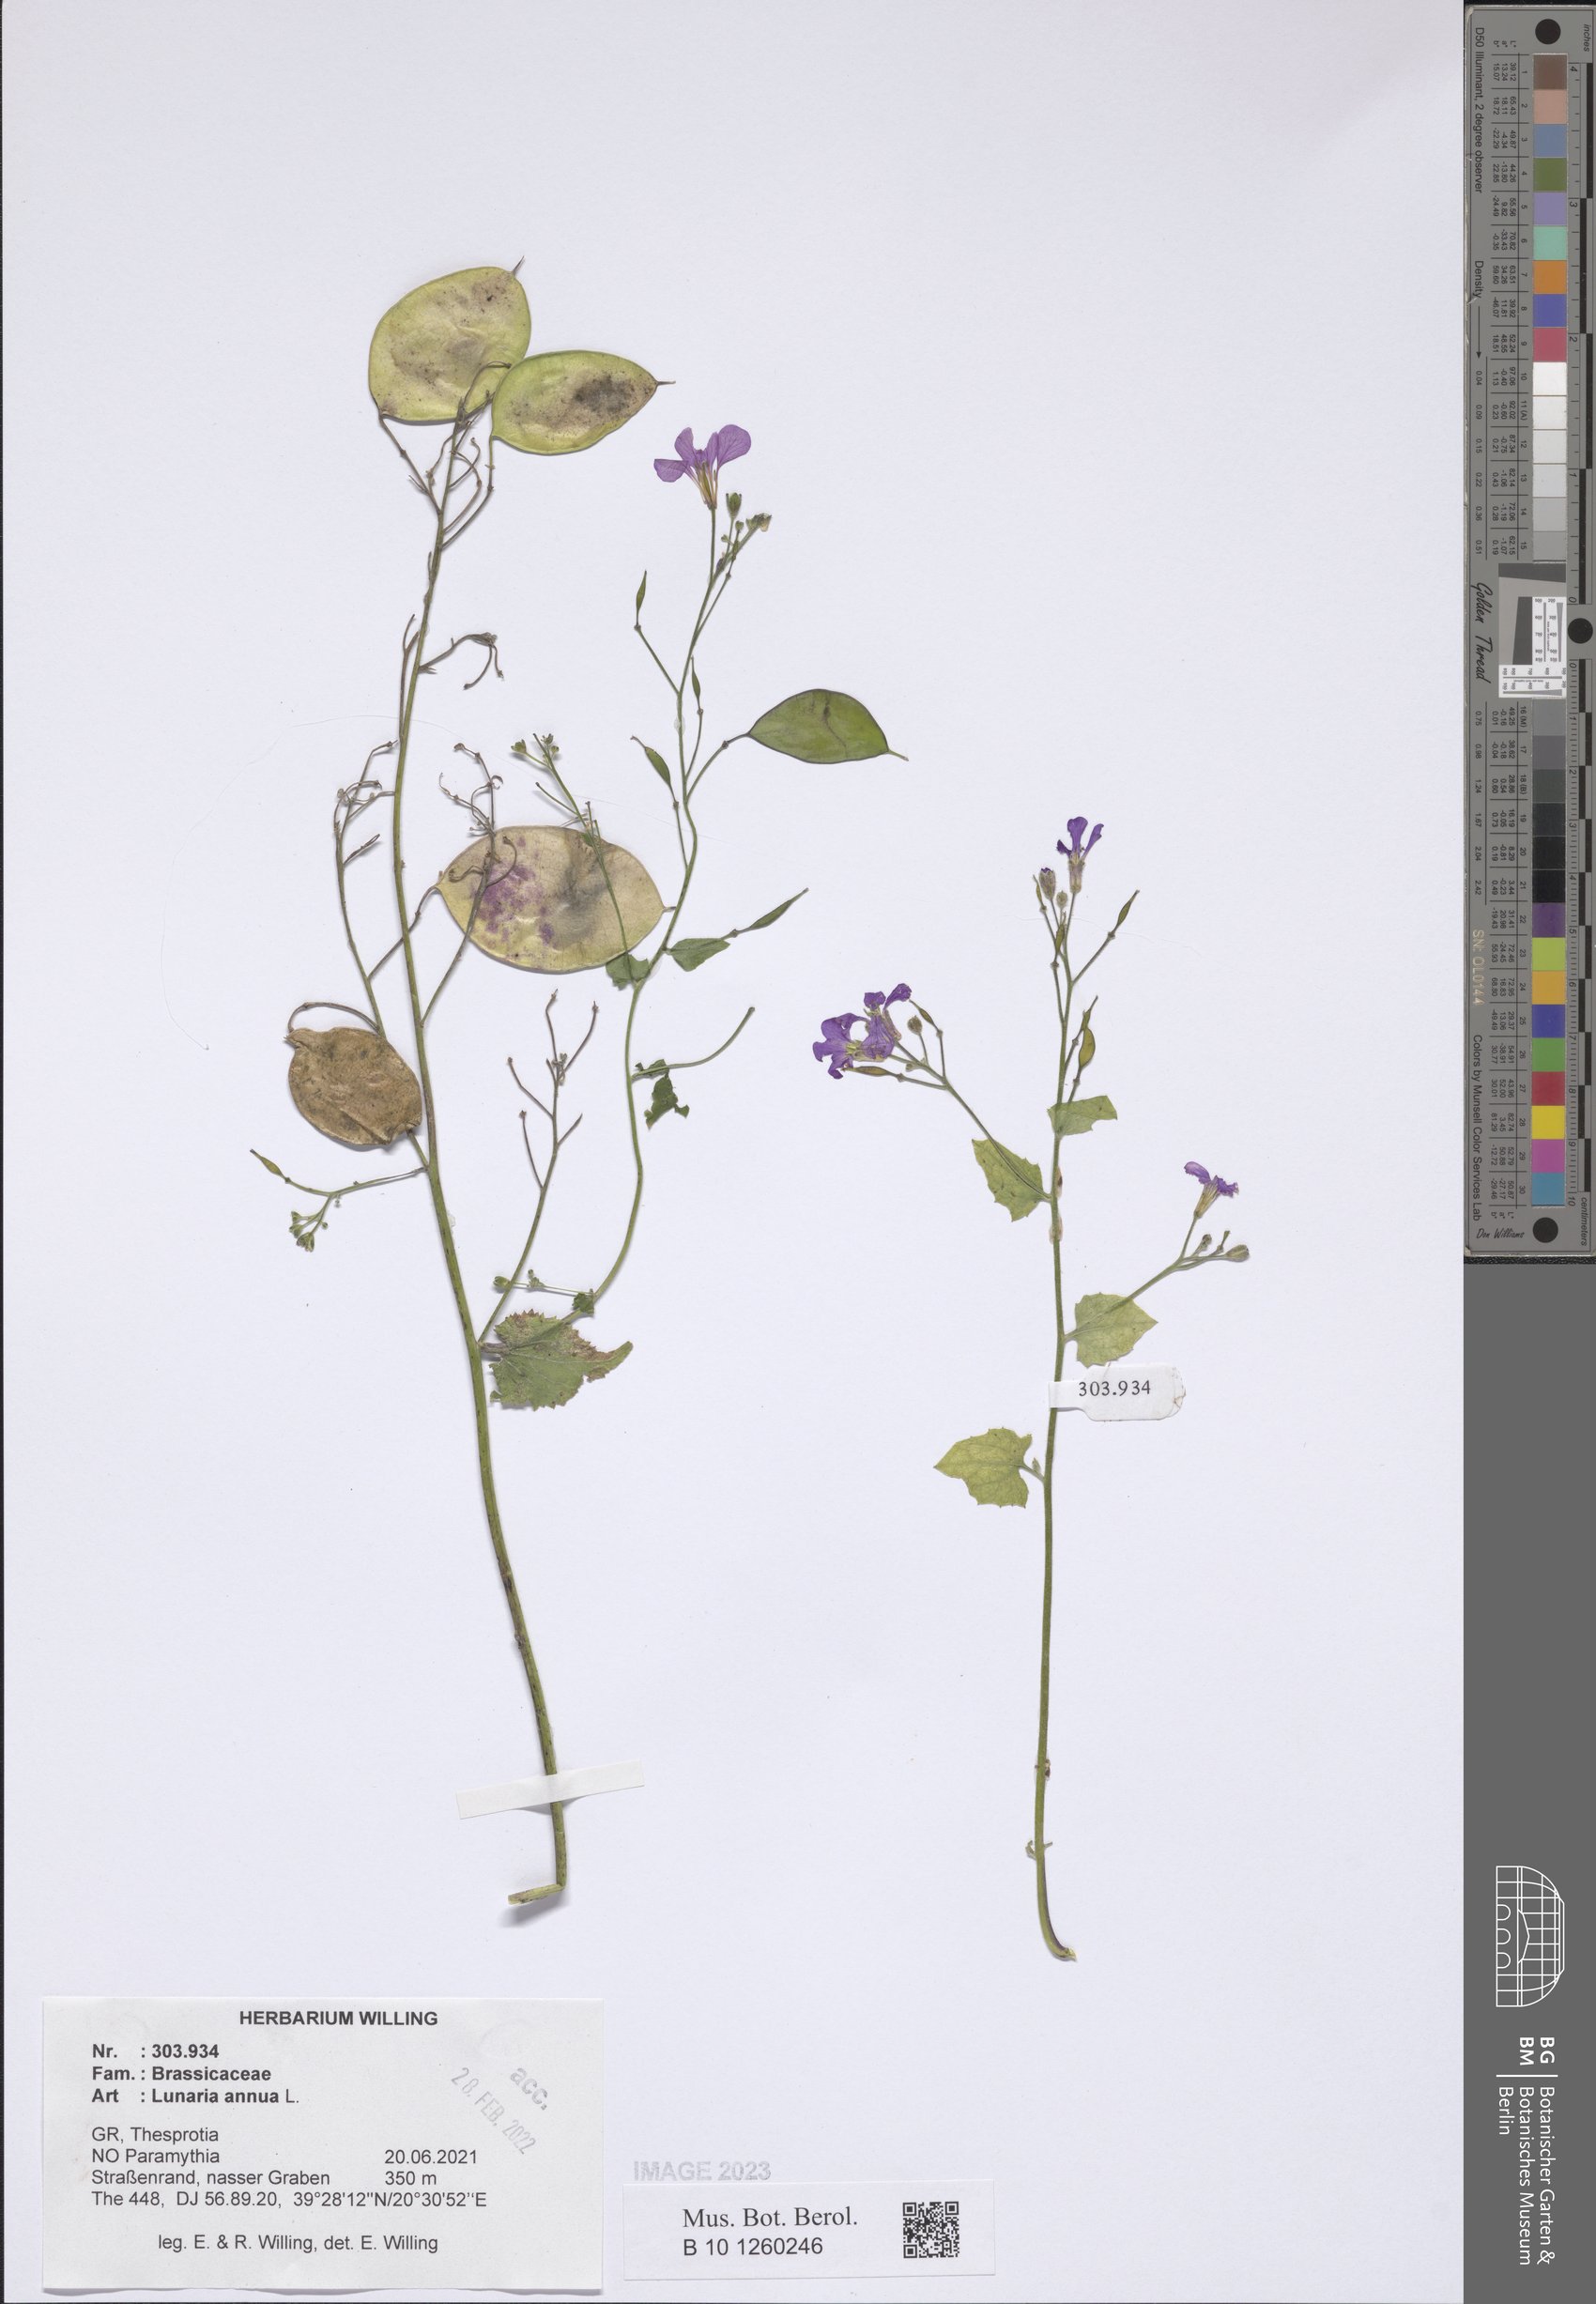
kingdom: Plantae
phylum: Tracheophyta
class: Magnoliopsida
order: Brassicales
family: Brassicaceae
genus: Lunaria
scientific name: Lunaria annua
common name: Honesty
